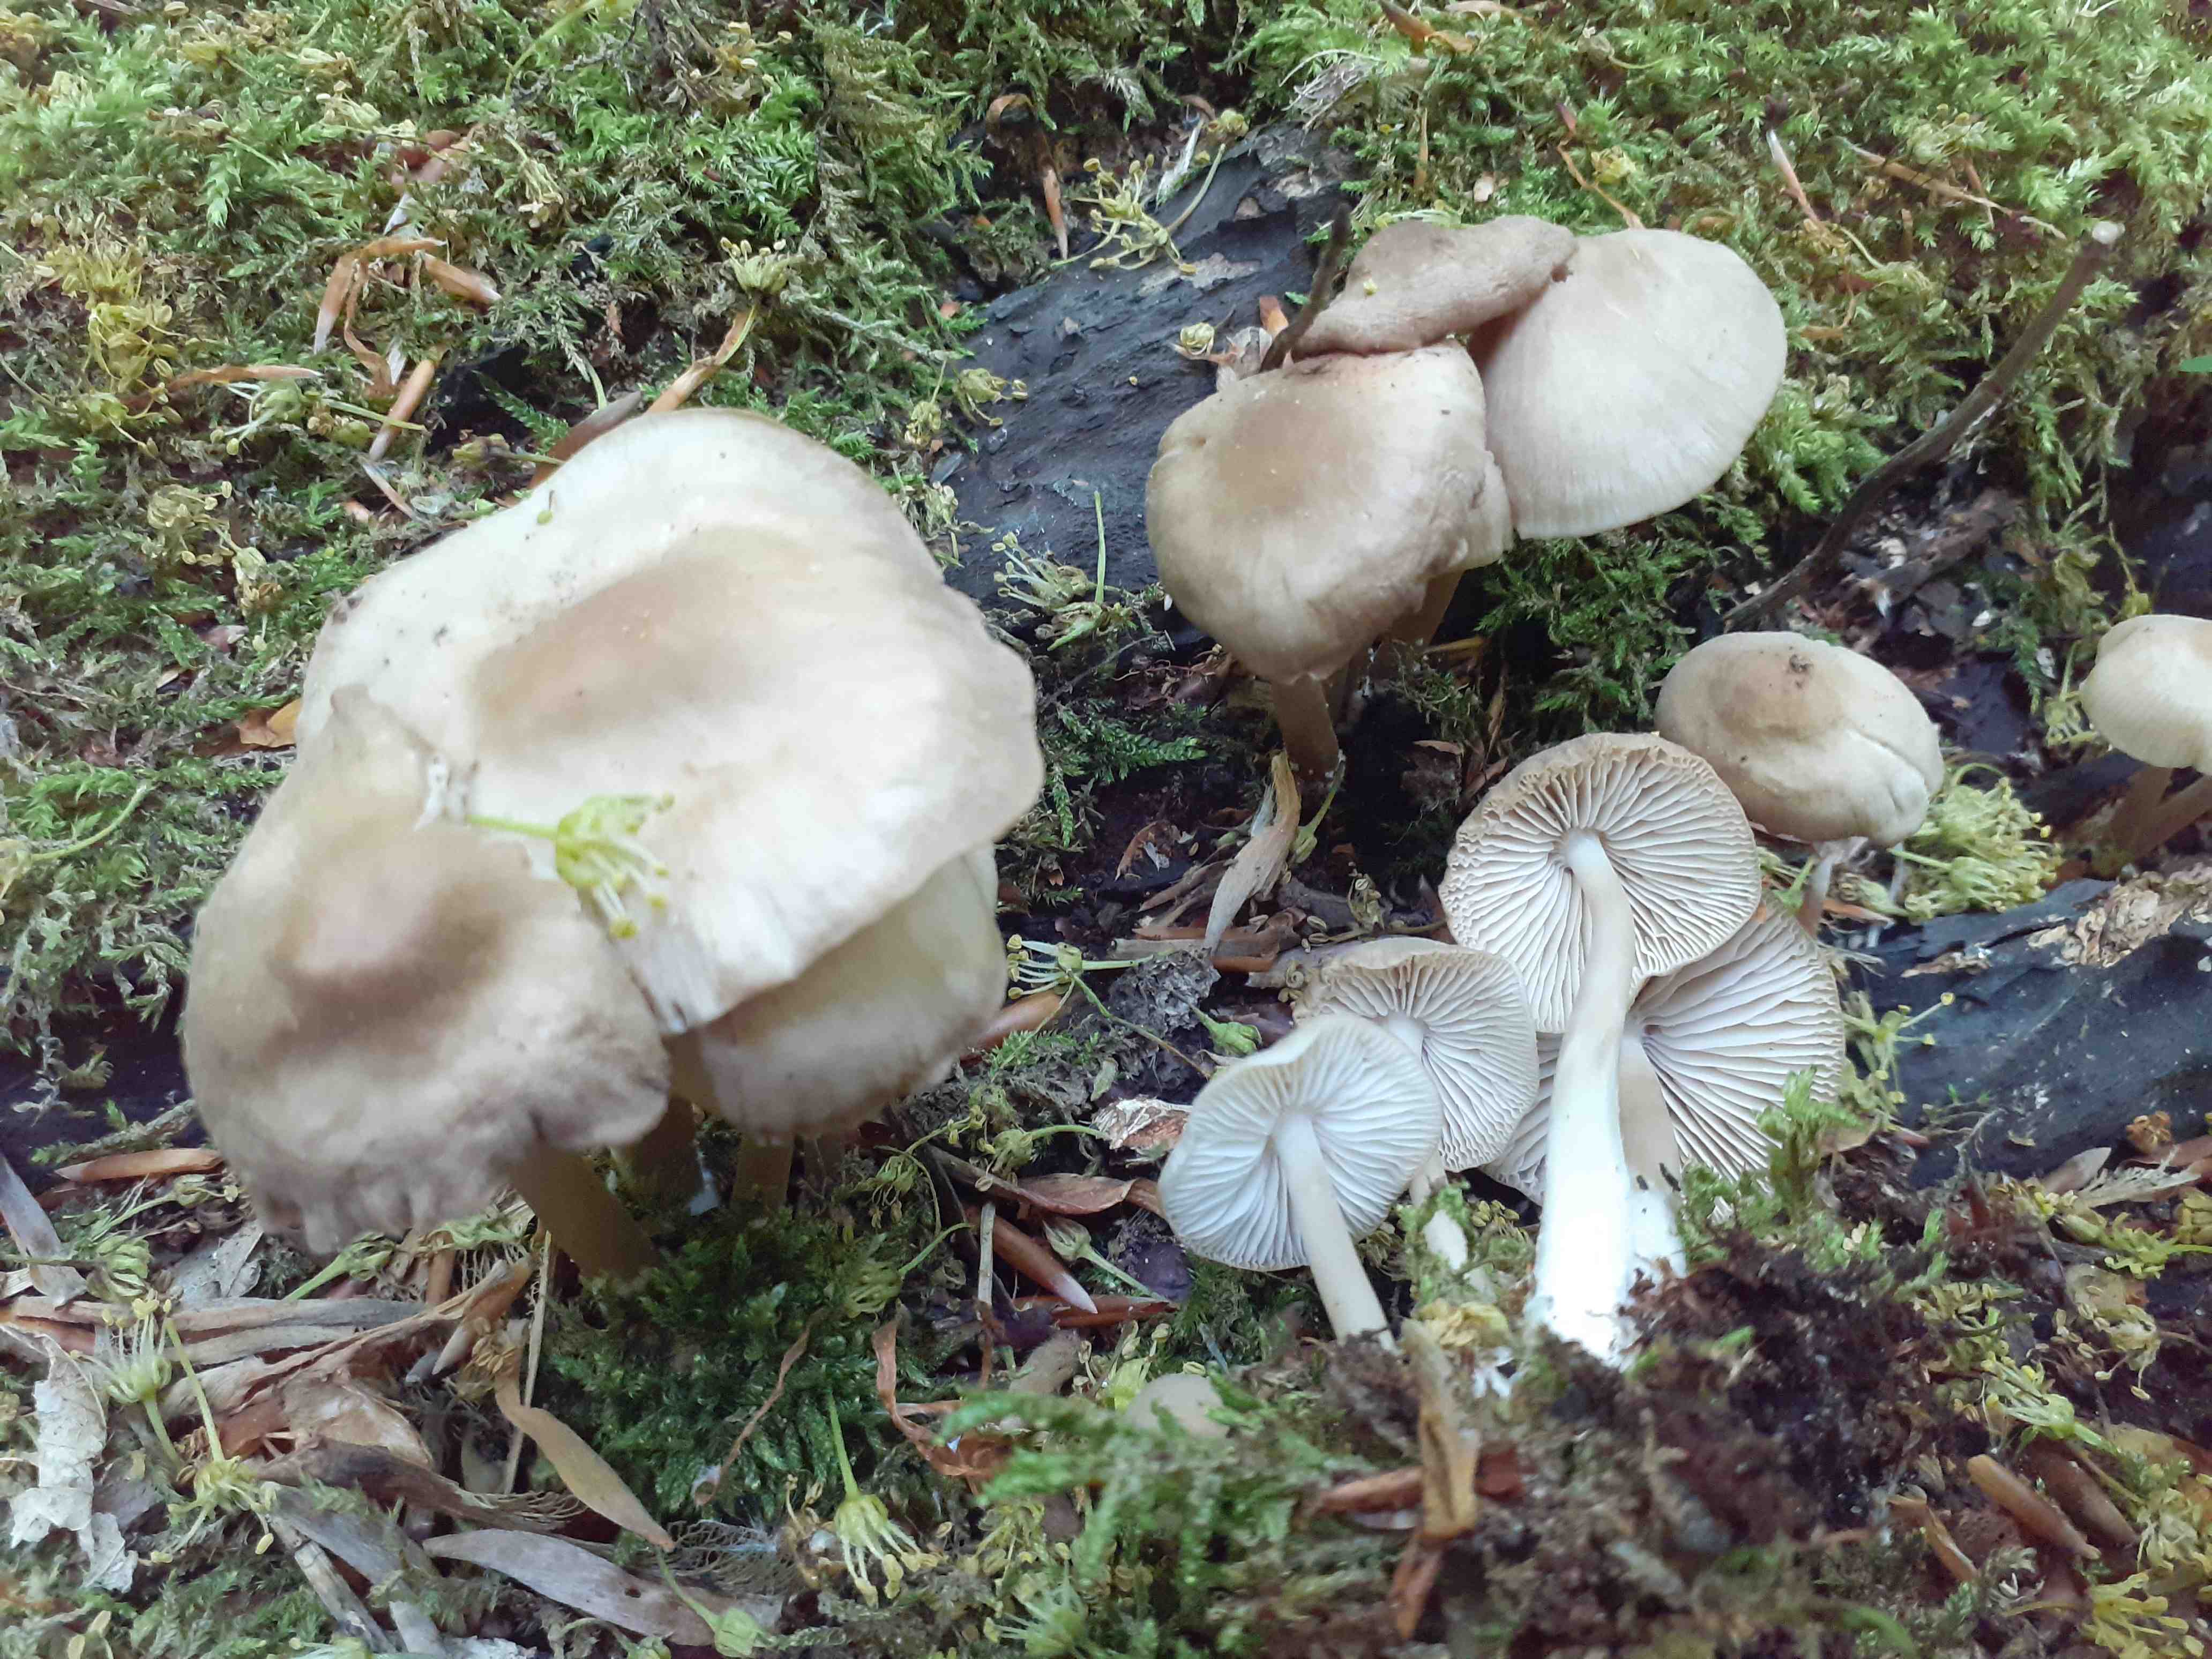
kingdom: Fungi
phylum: Basidiomycota
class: Agaricomycetes
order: Agaricales
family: Mycenaceae
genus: Mycena
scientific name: Mycena galericulata
